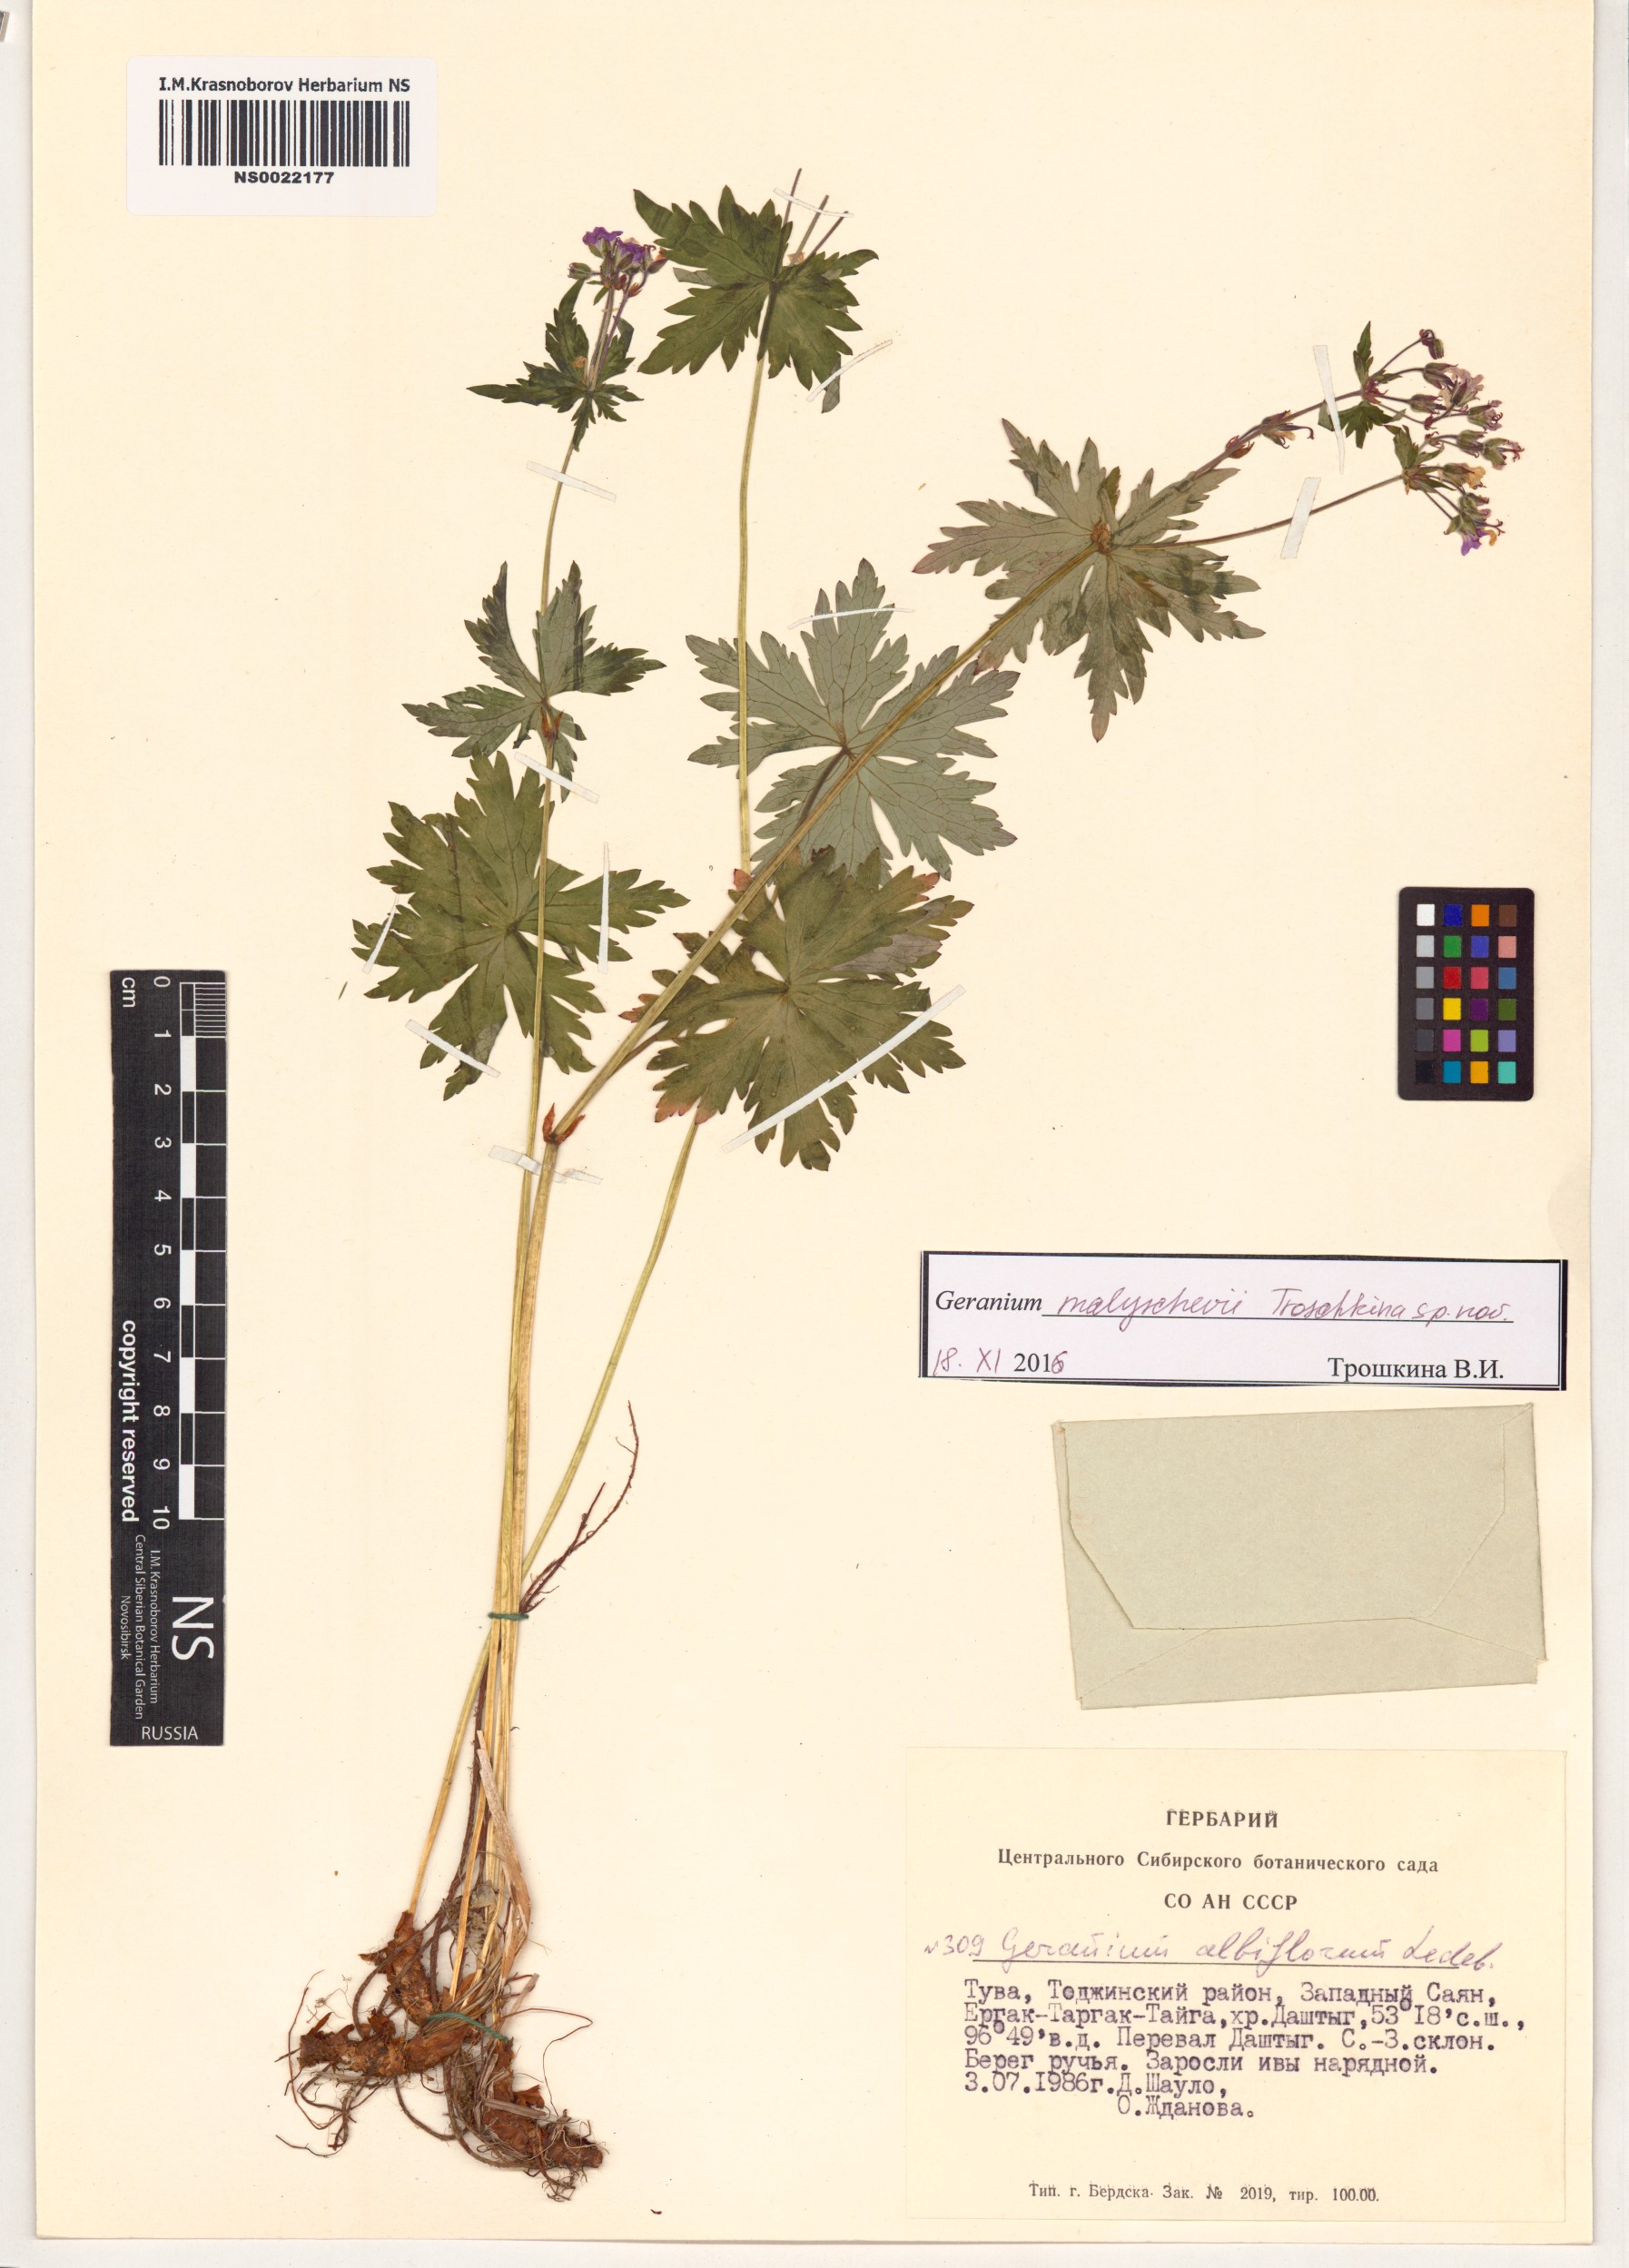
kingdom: Plantae
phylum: Tracheophyta
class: Magnoliopsida
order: Geraniales
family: Geraniaceae
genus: Geranium
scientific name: Geranium malyschevii
